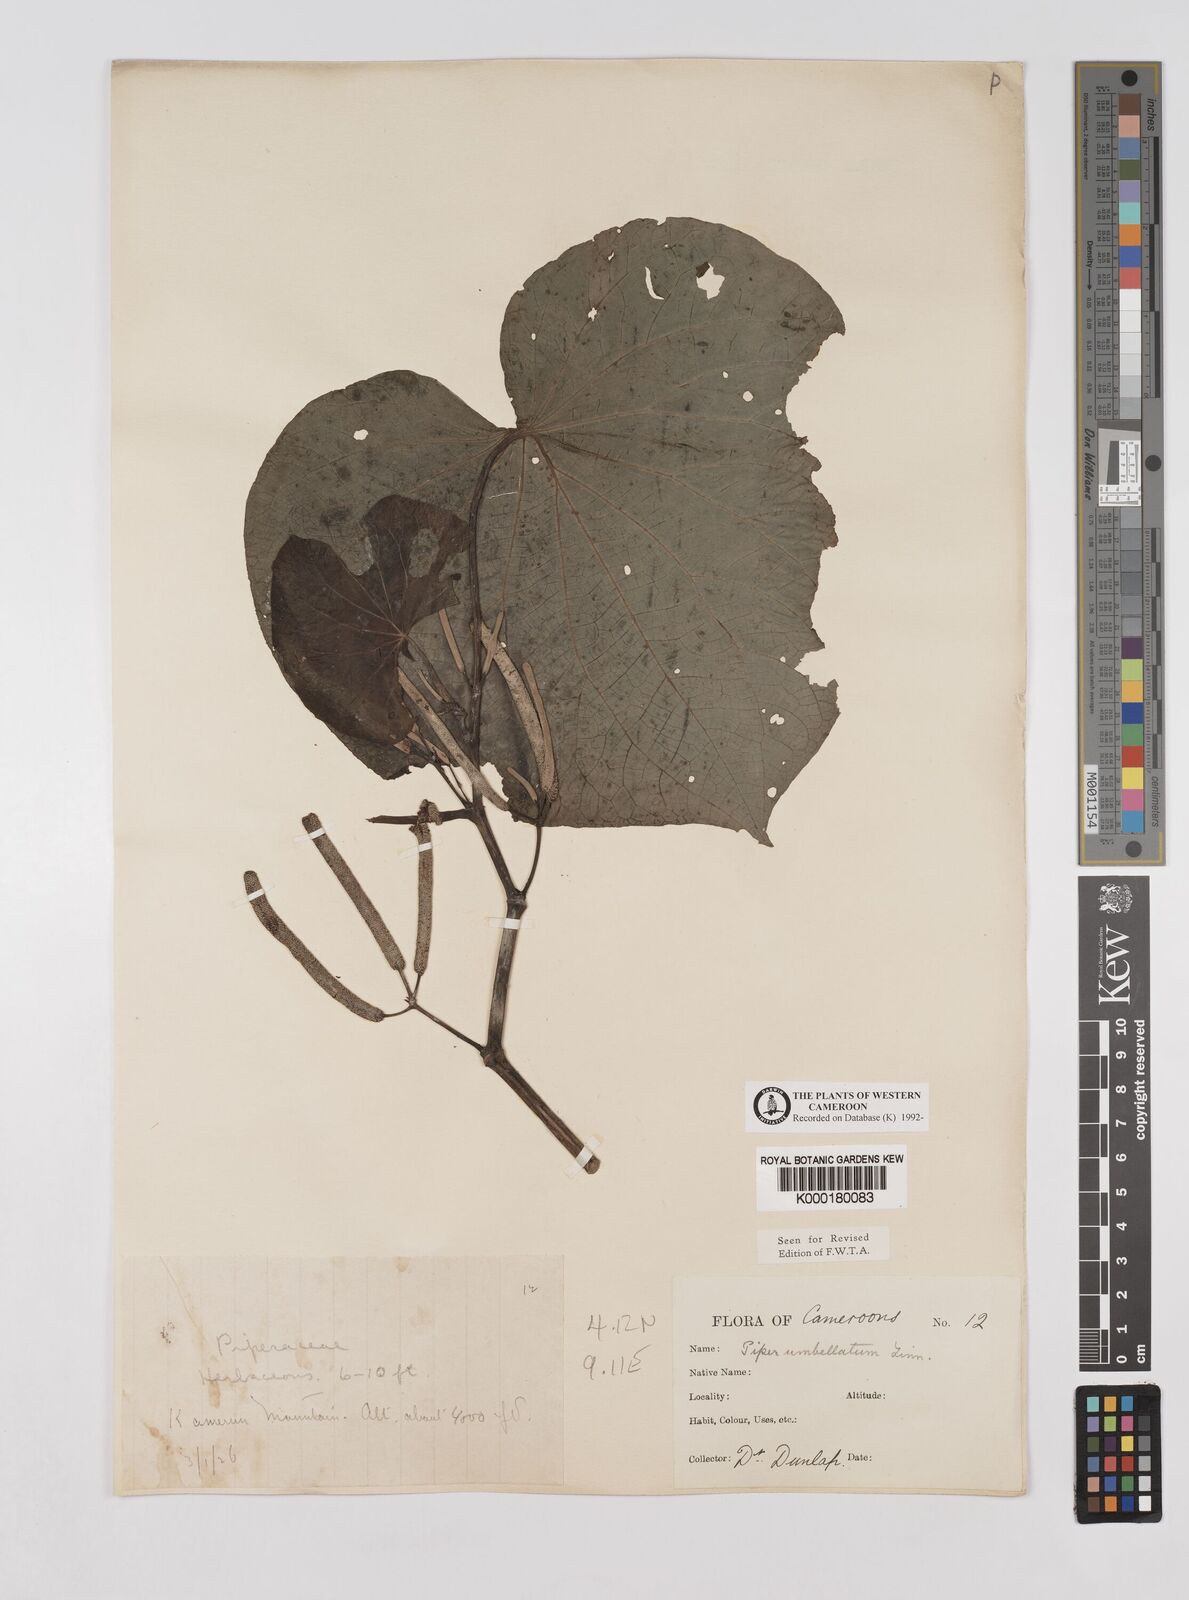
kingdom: Plantae
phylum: Tracheophyta
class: Magnoliopsida
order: Piperales
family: Piperaceae
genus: Piper
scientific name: Piper umbellatum
